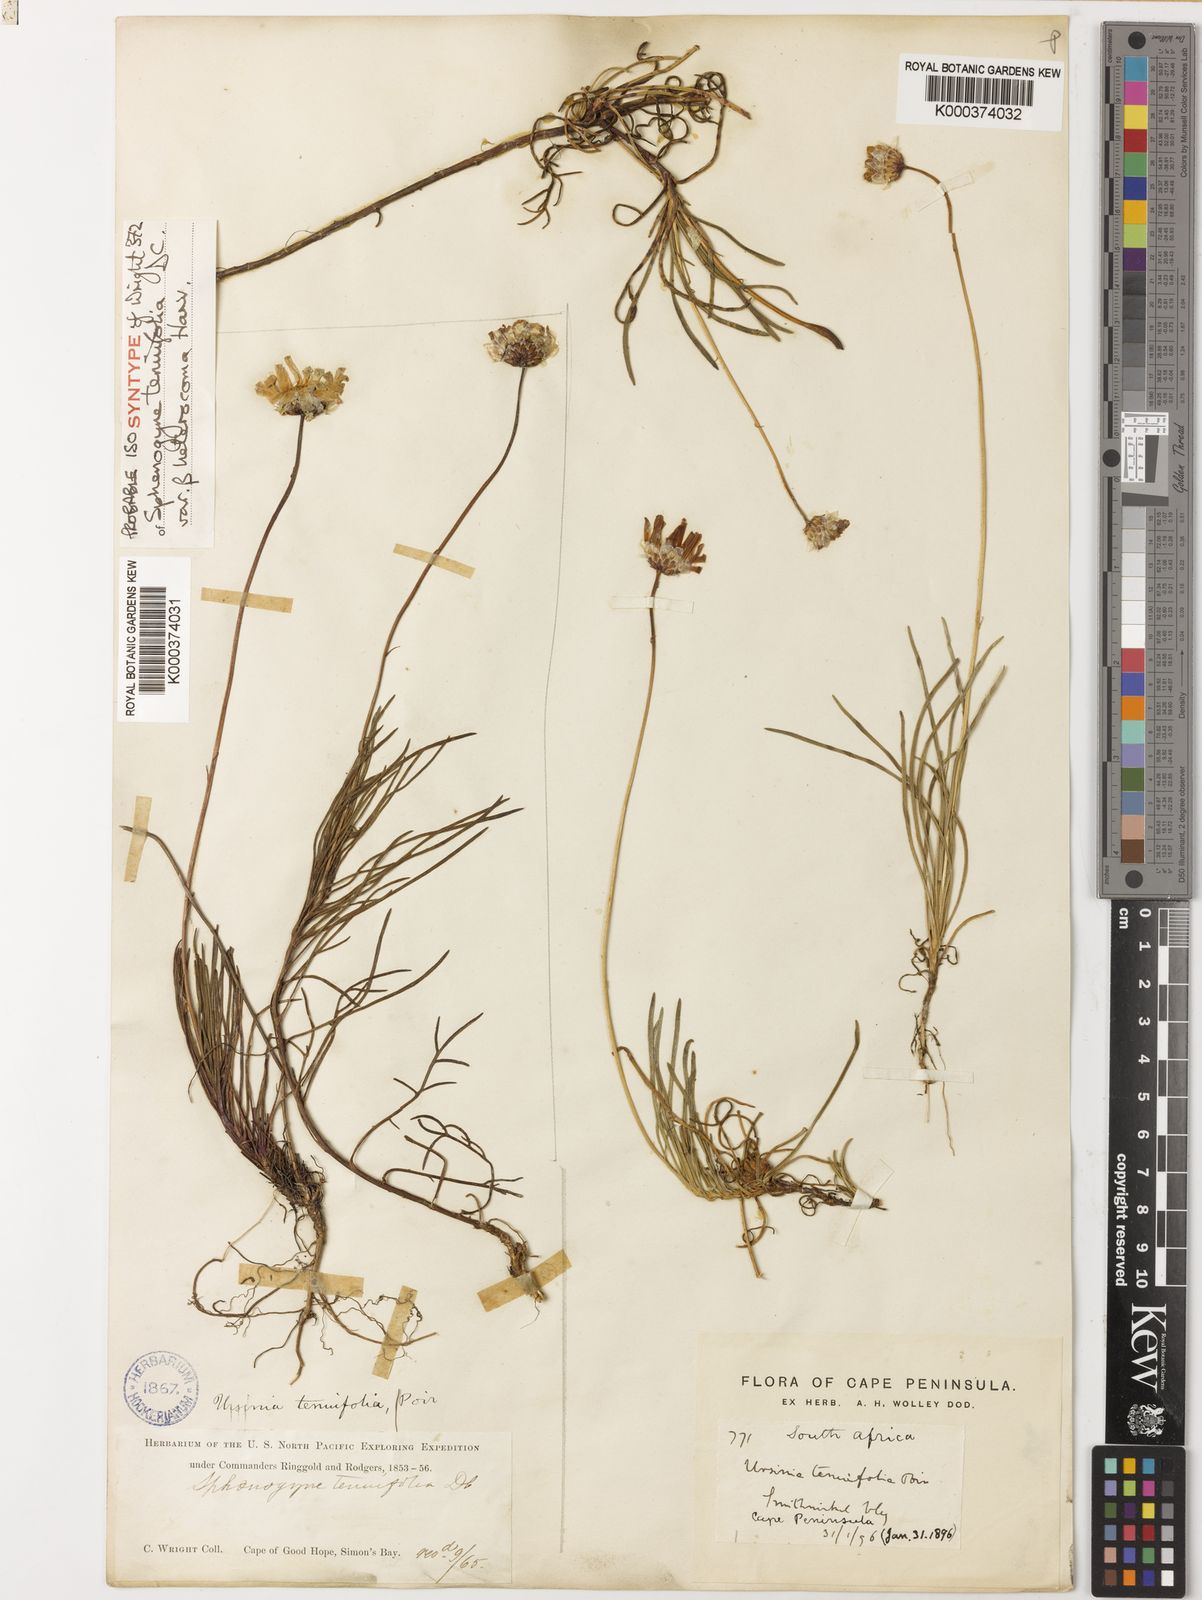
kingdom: Plantae
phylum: Tracheophyta
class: Magnoliopsida
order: Asterales
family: Asteraceae
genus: Ursinia
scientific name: Ursinia tenuifolia
